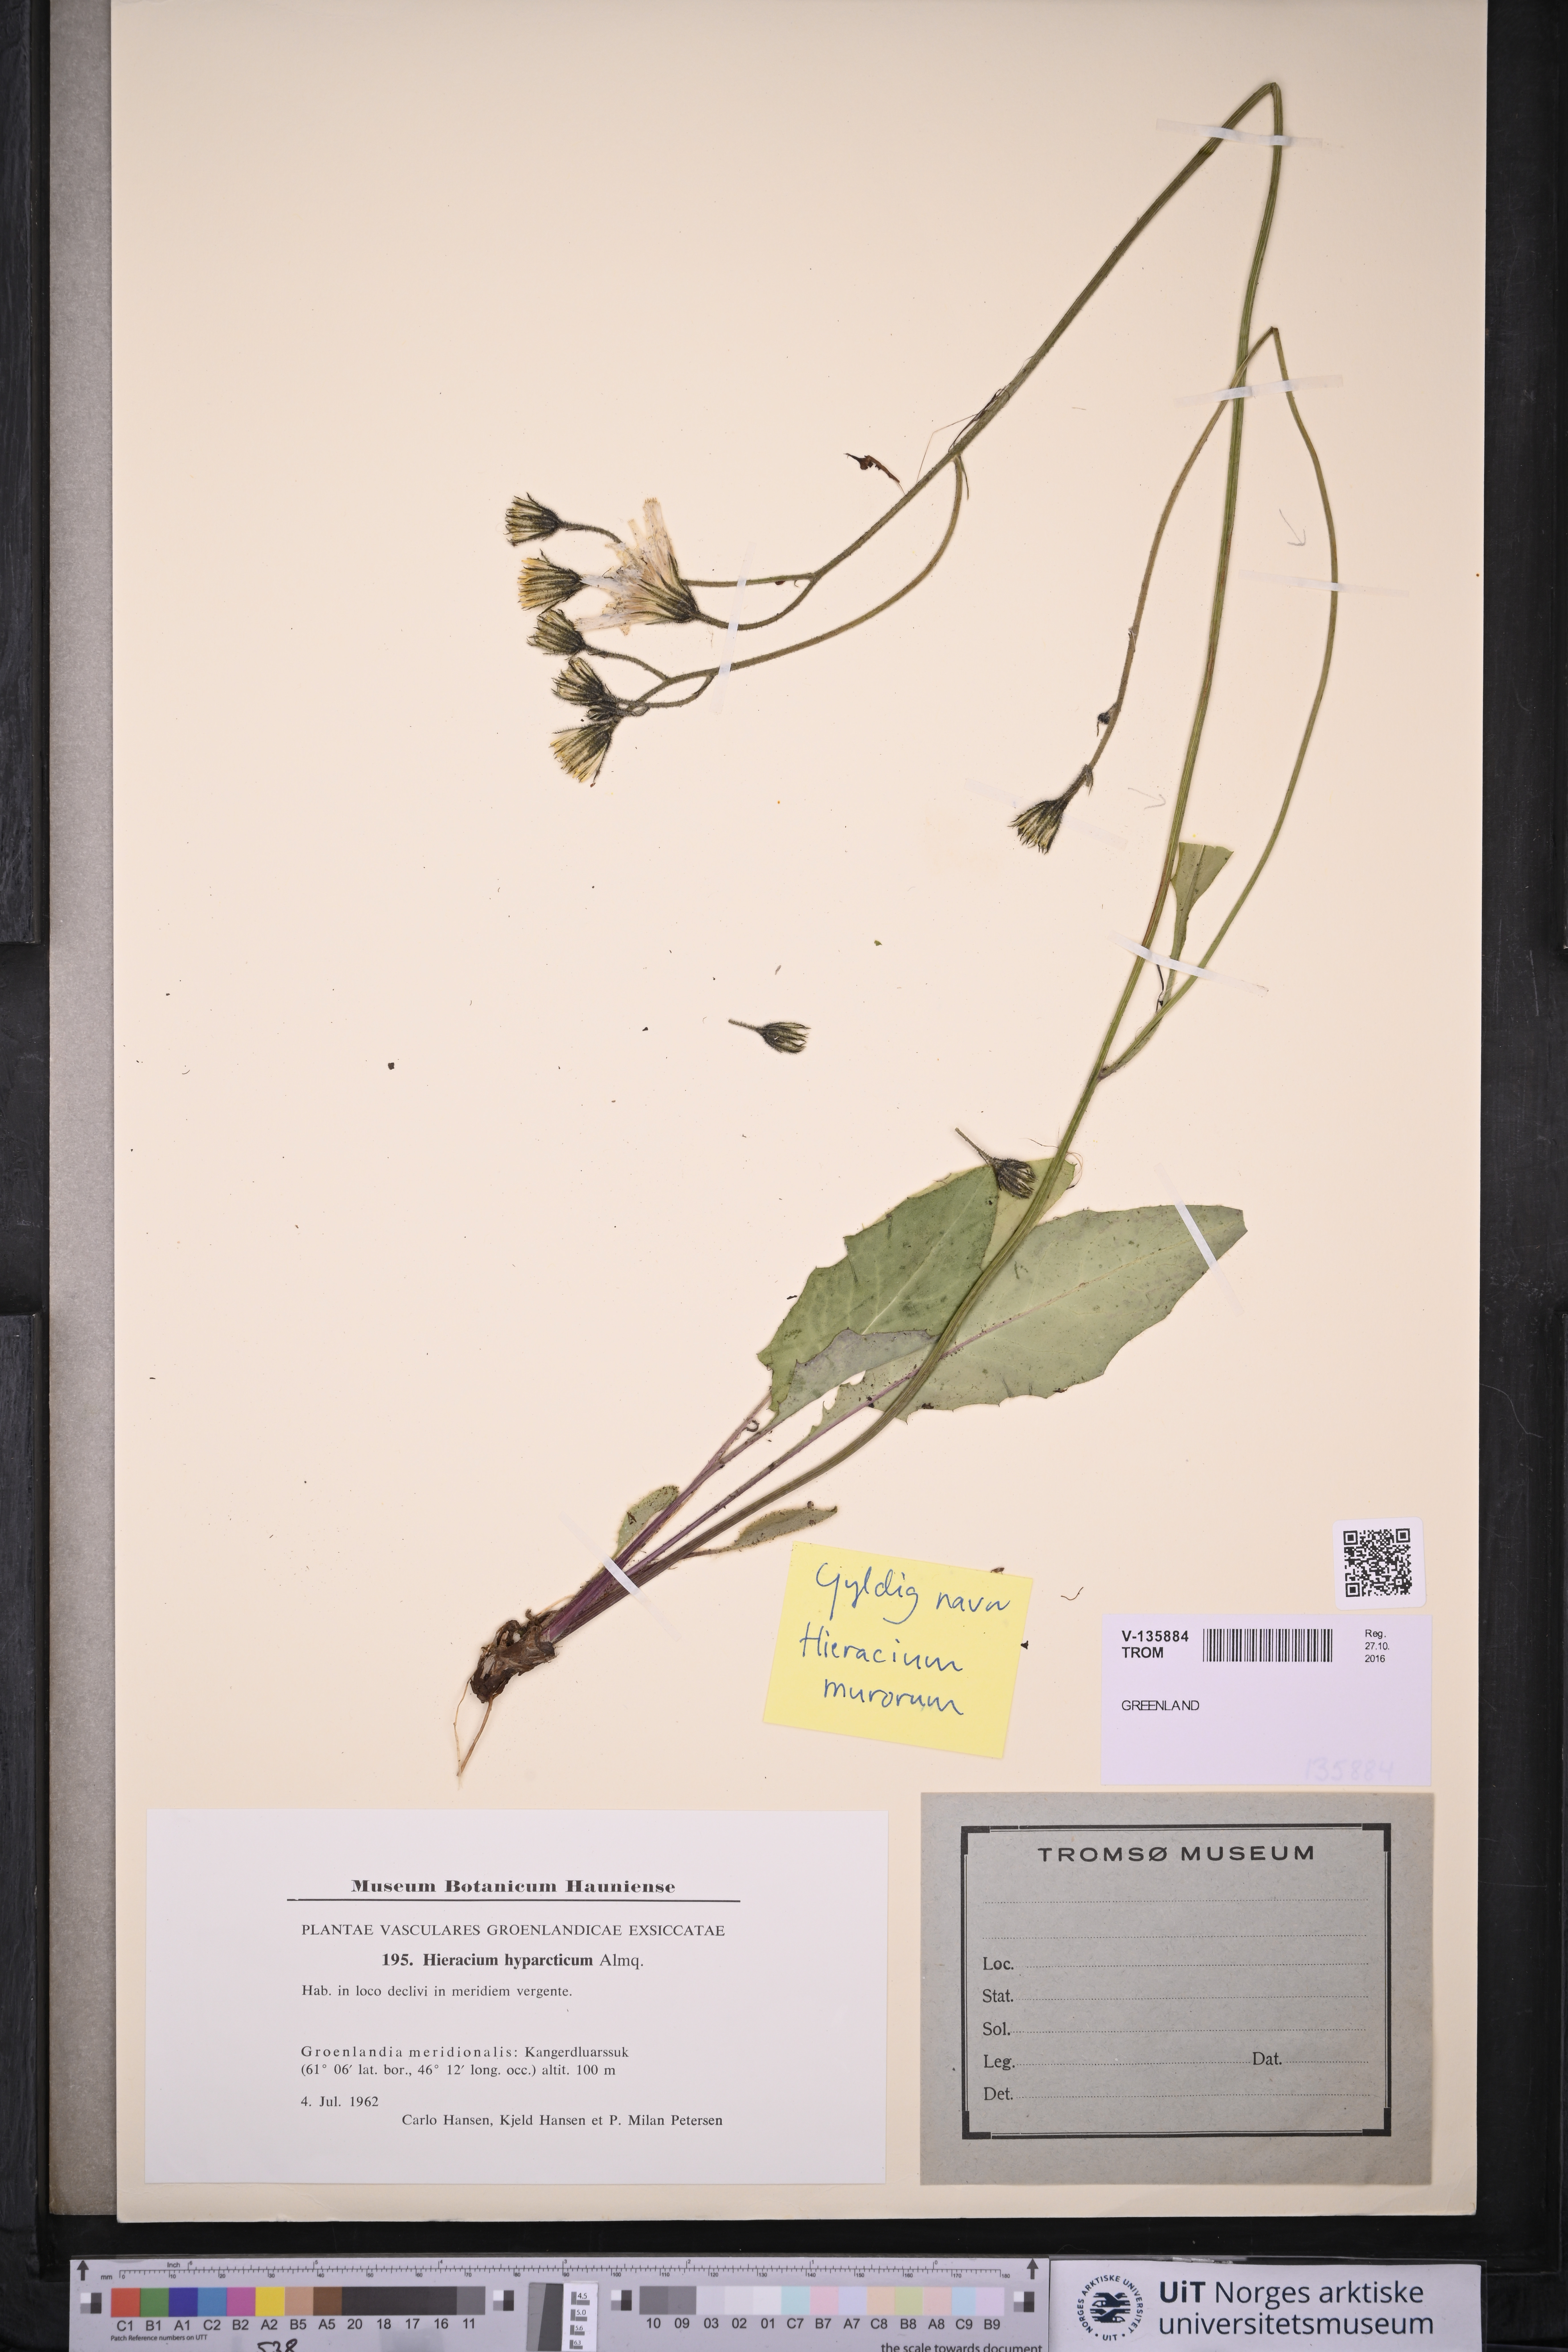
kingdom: Plantae
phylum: Tracheophyta
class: Magnoliopsida
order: Asterales
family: Asteraceae
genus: Hieracium
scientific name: Hieracium murorum
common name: Wall hawkweed
